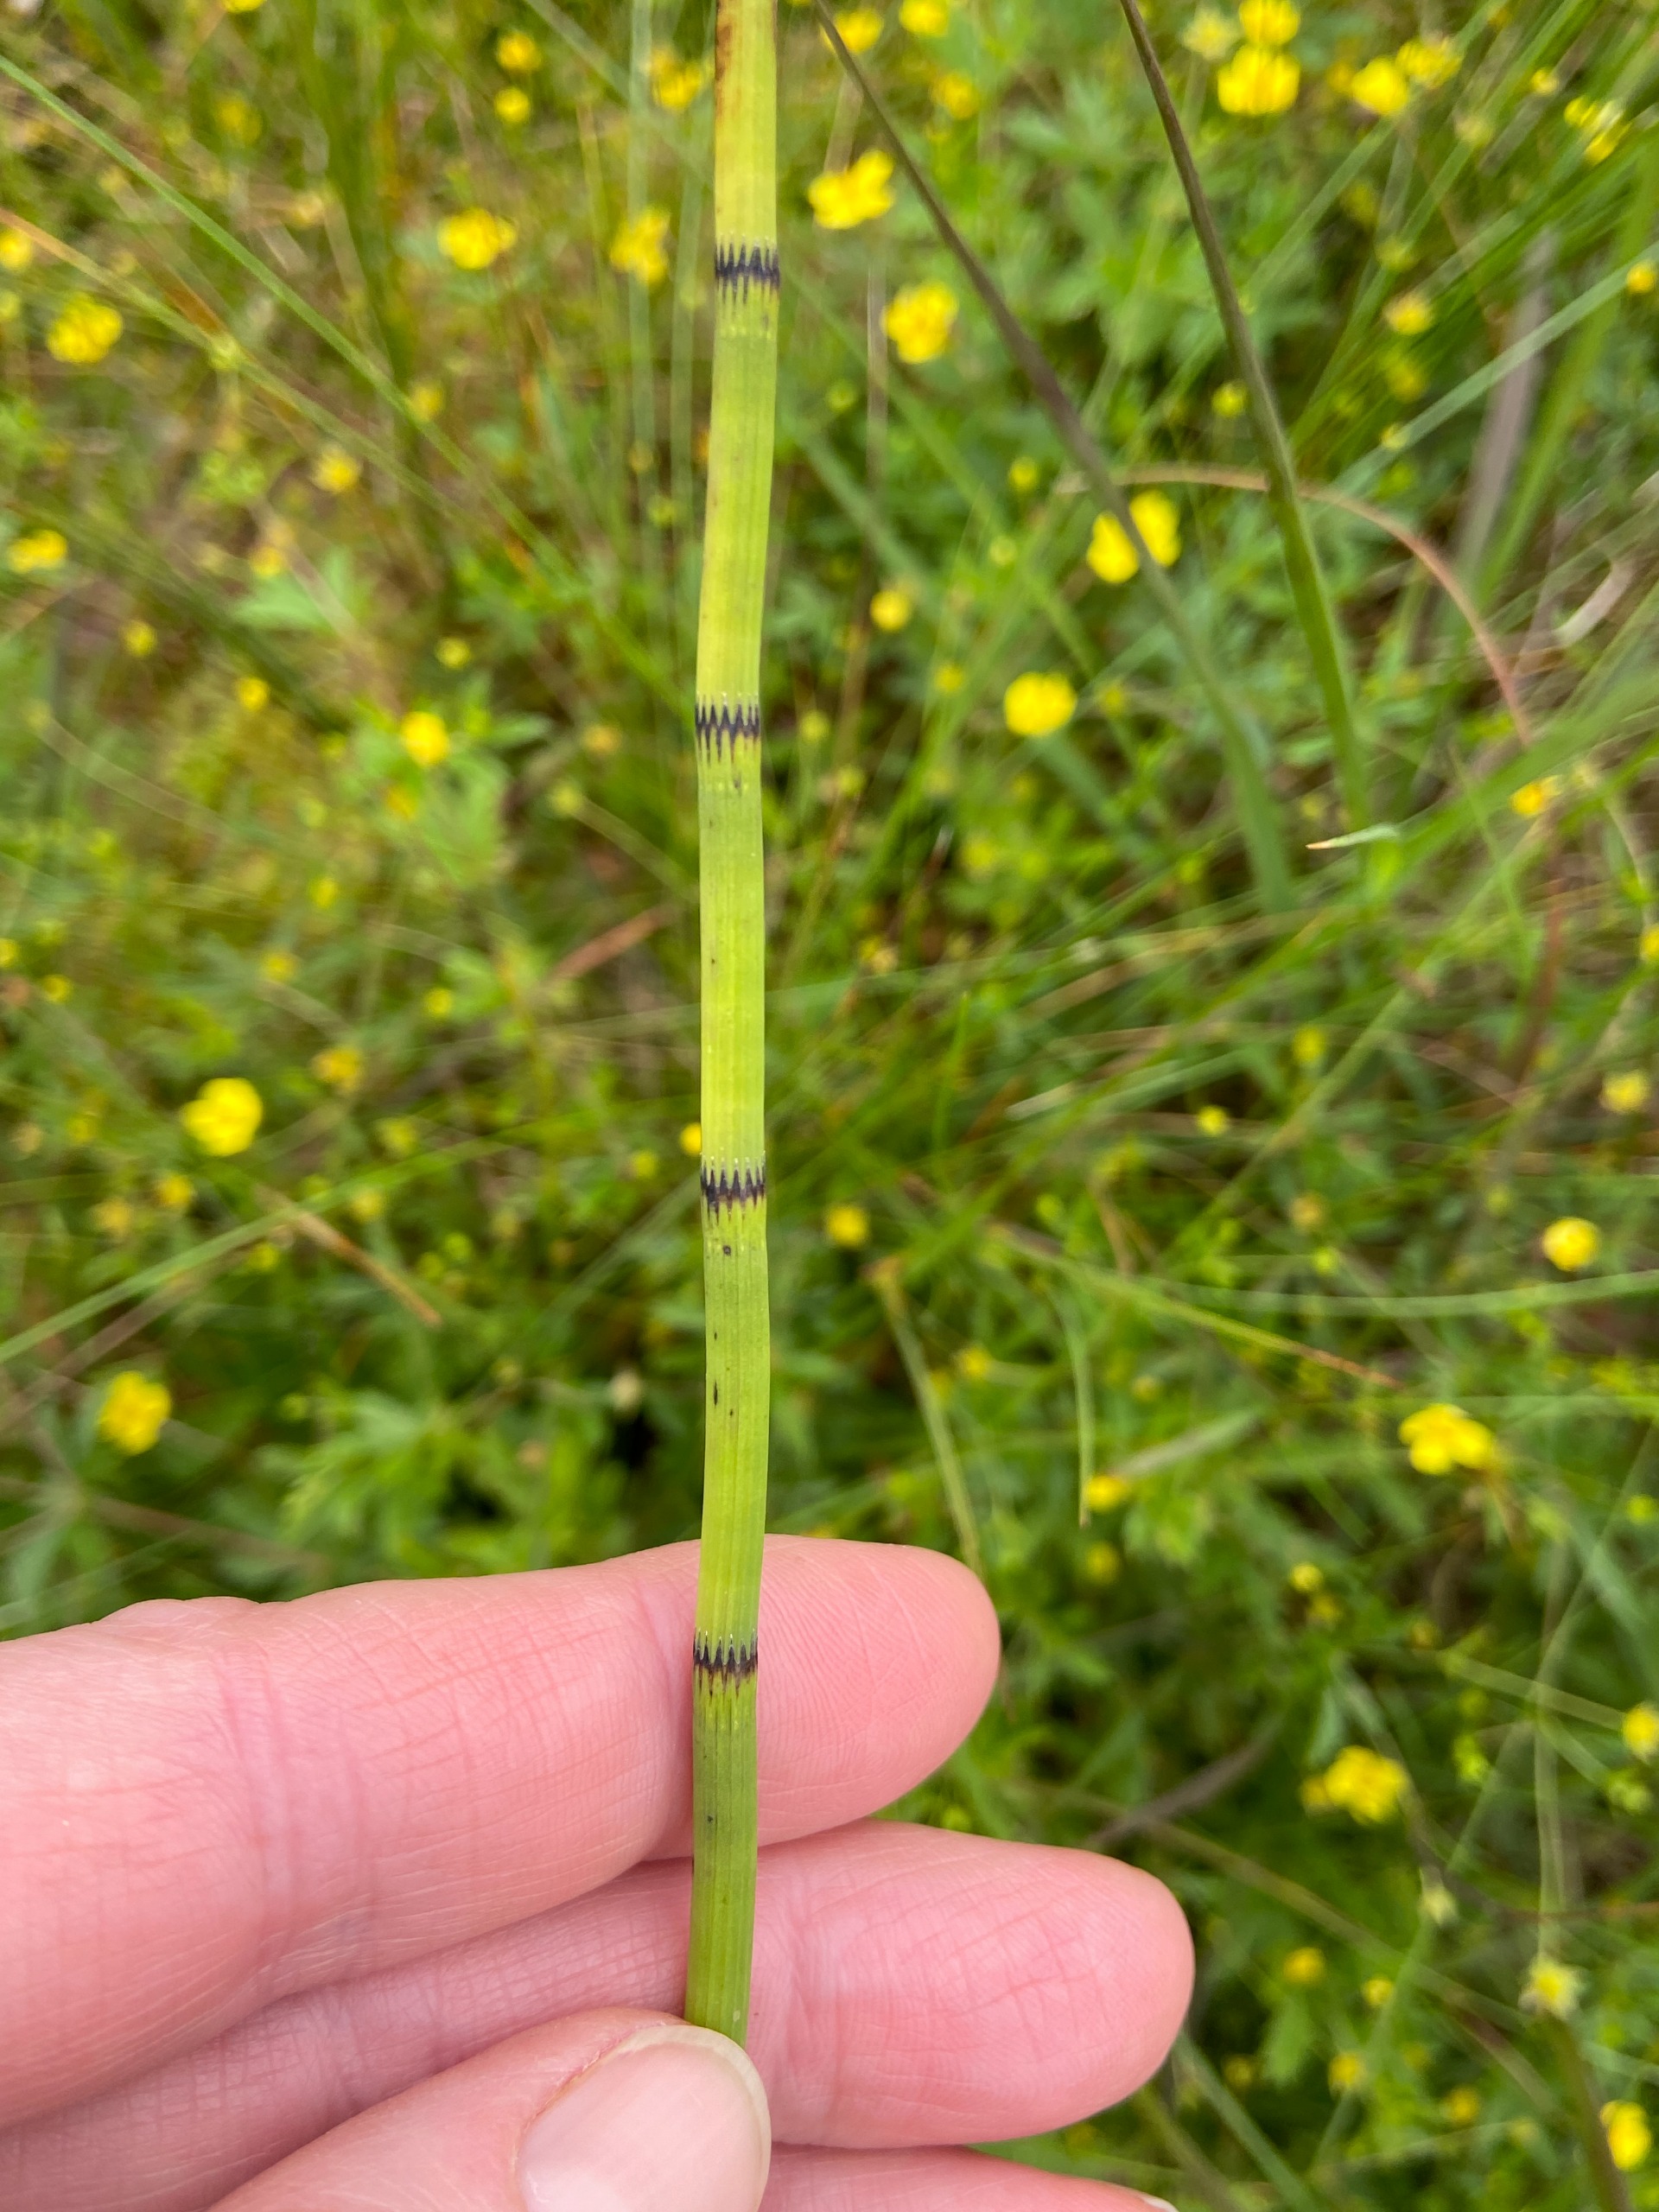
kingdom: Plantae
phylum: Tracheophyta
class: Polypodiopsida
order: Equisetales
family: Equisetaceae
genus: Equisetum
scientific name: Equisetum fluviatile
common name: Dynd-padderok
